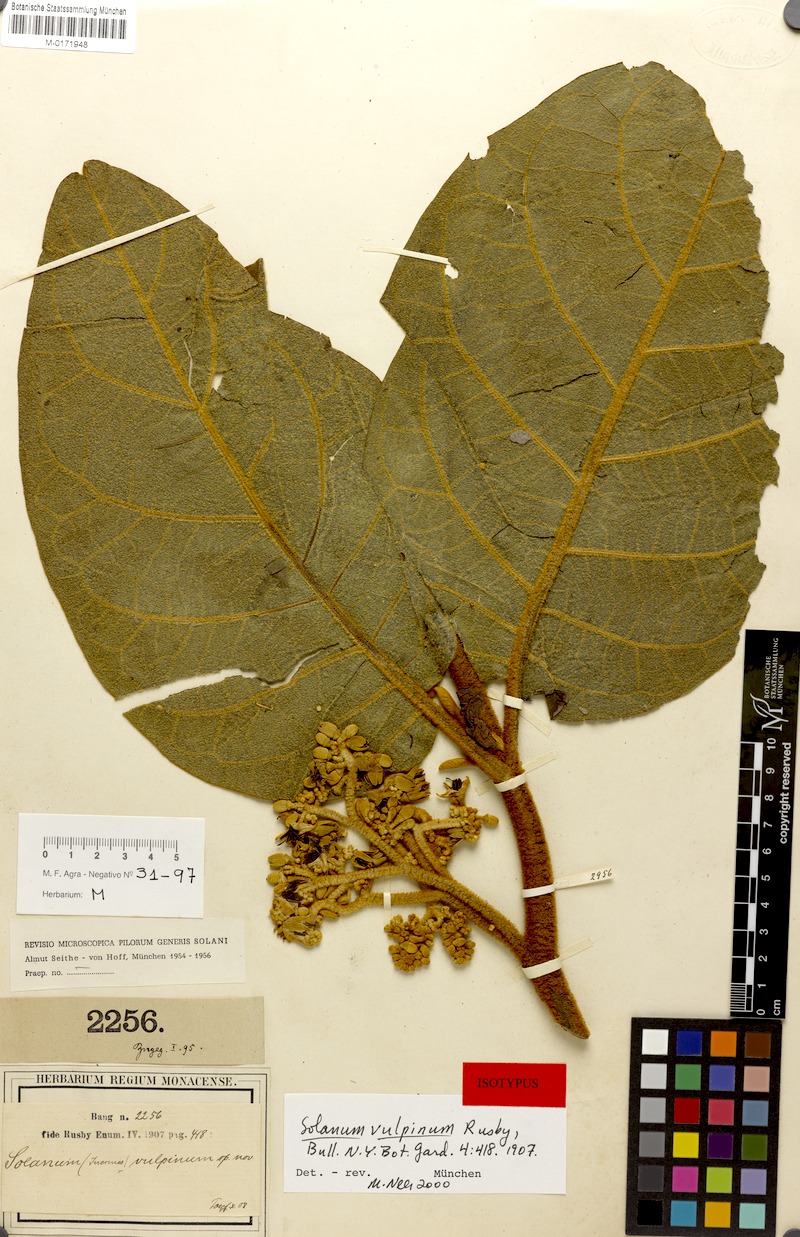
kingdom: Plantae
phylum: Tracheophyta
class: Magnoliopsida
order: Solanales
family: Solanaceae
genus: Solanum
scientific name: Solanum actaeibotrys
